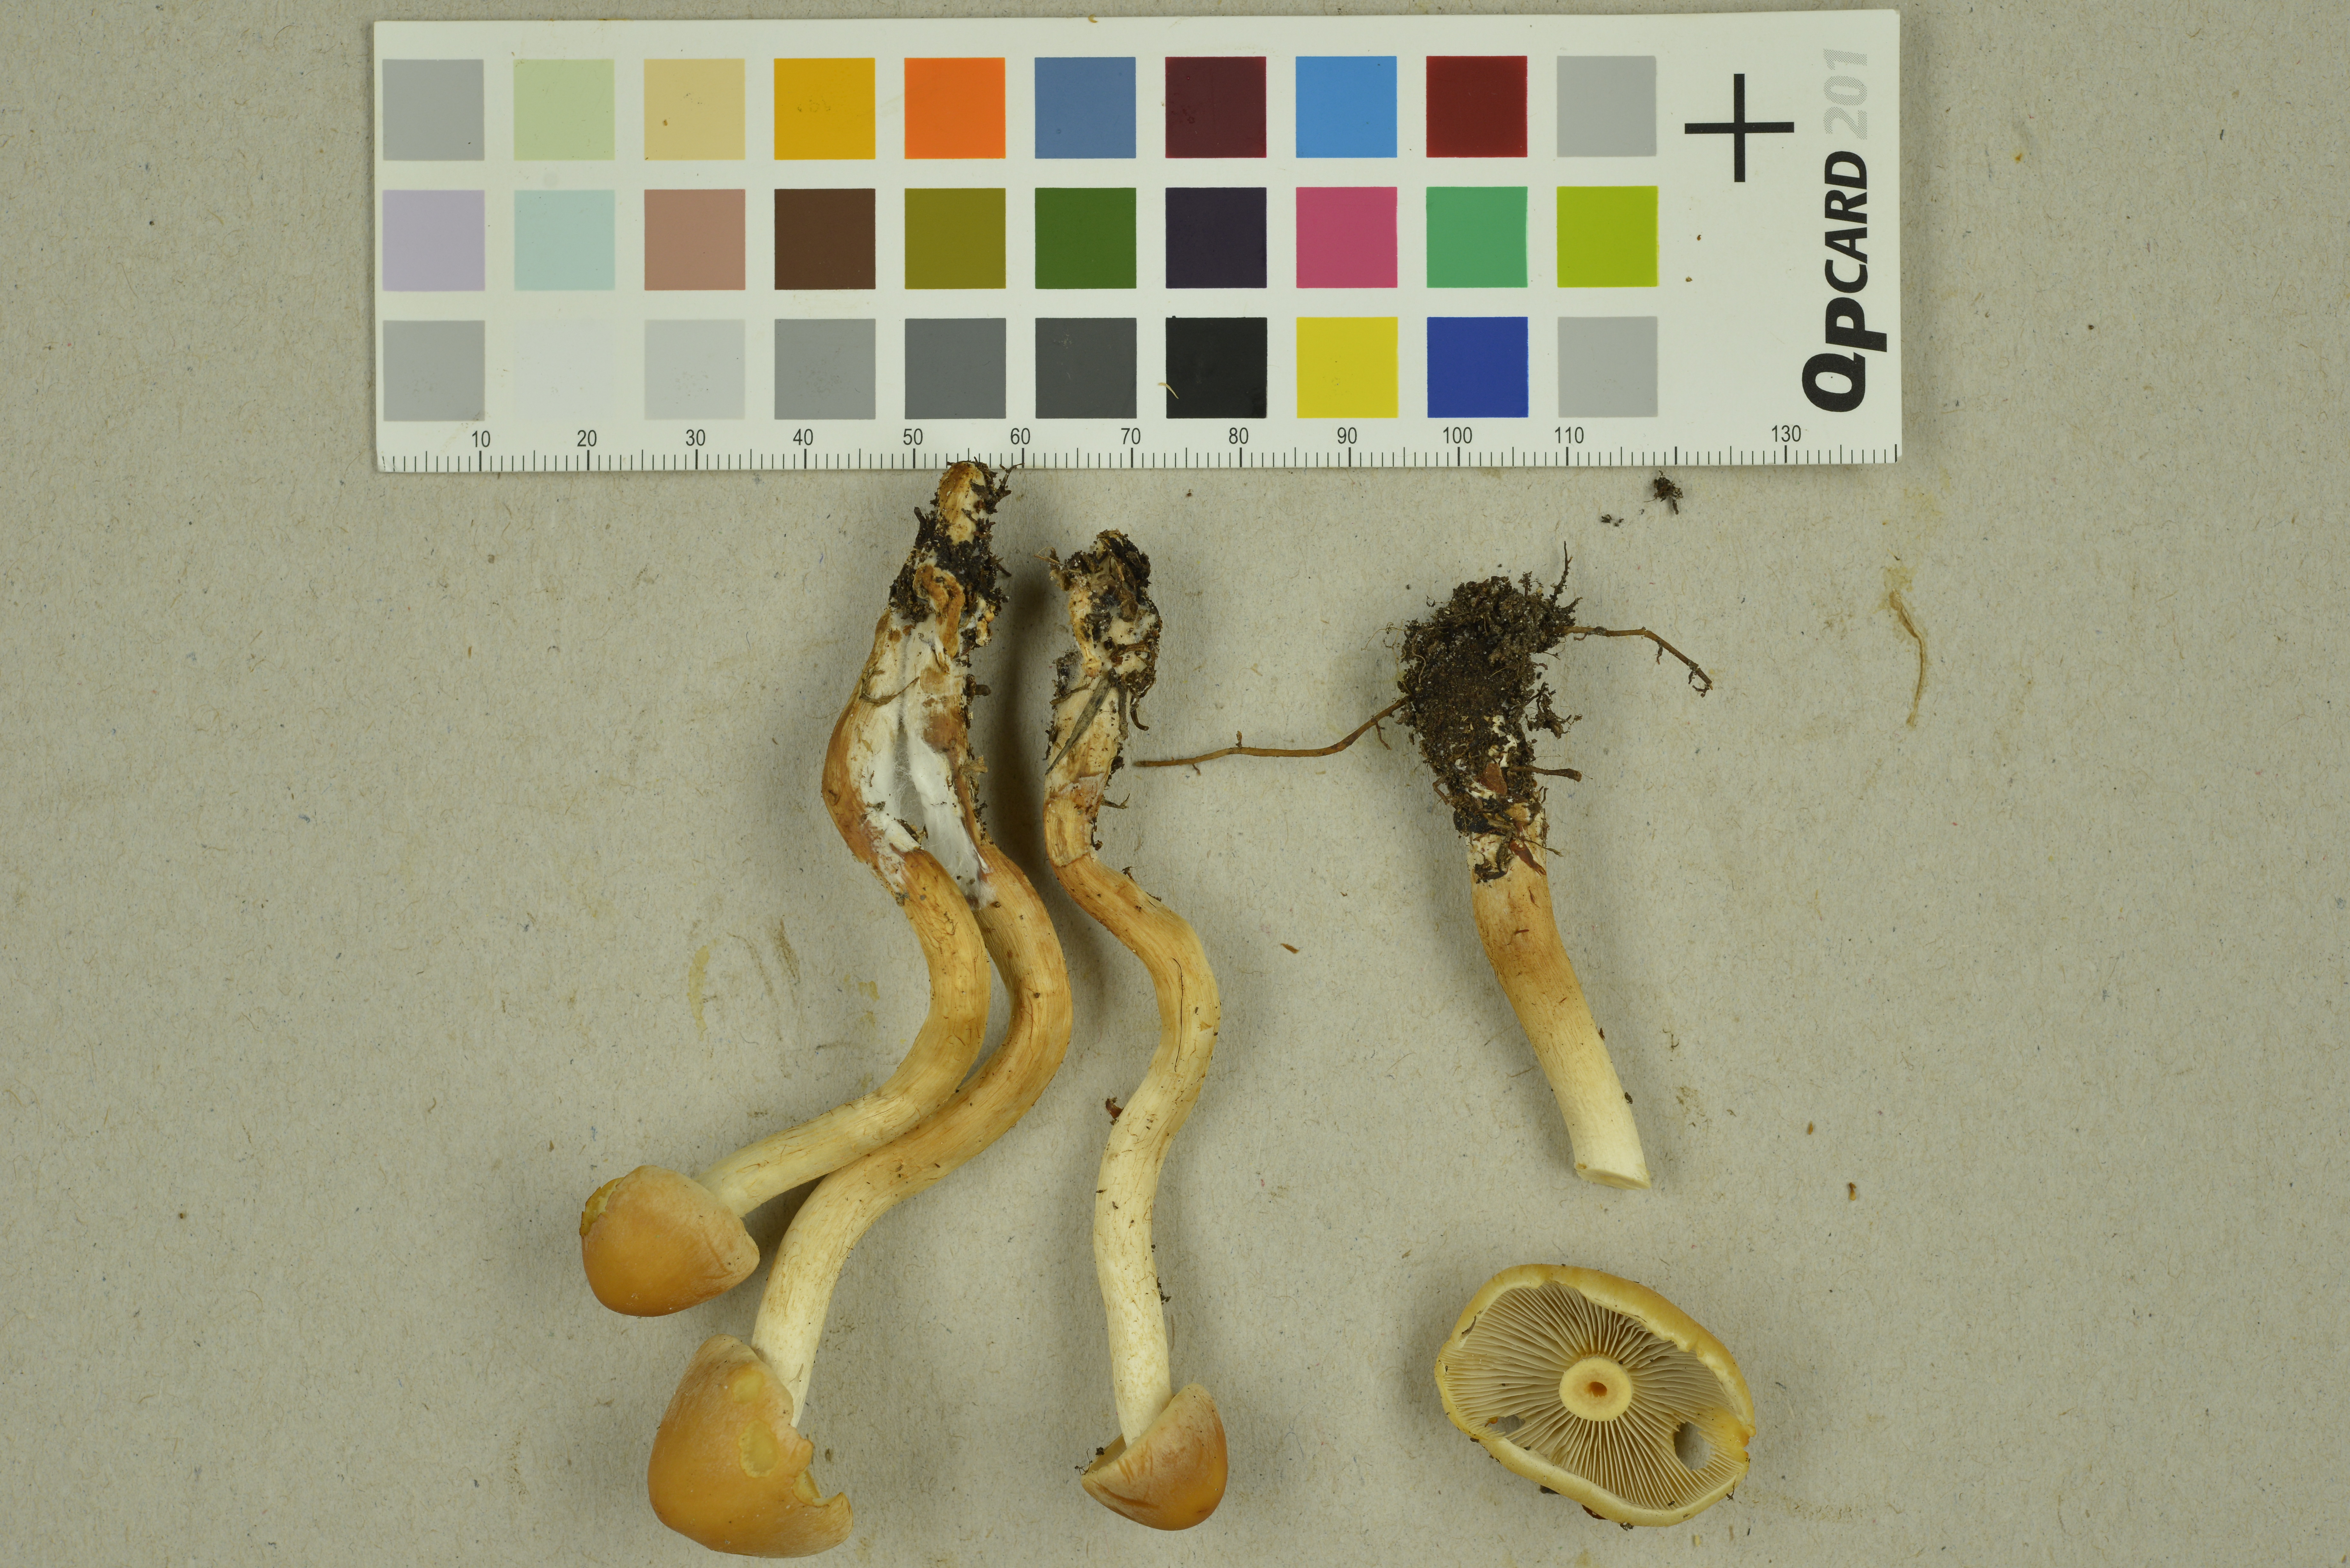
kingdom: Fungi
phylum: Basidiomycota
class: Agaricomycetes
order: Agaricales
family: Strophariaceae
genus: Hypholoma
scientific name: Hypholoma capnoides
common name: Conifer tuft
